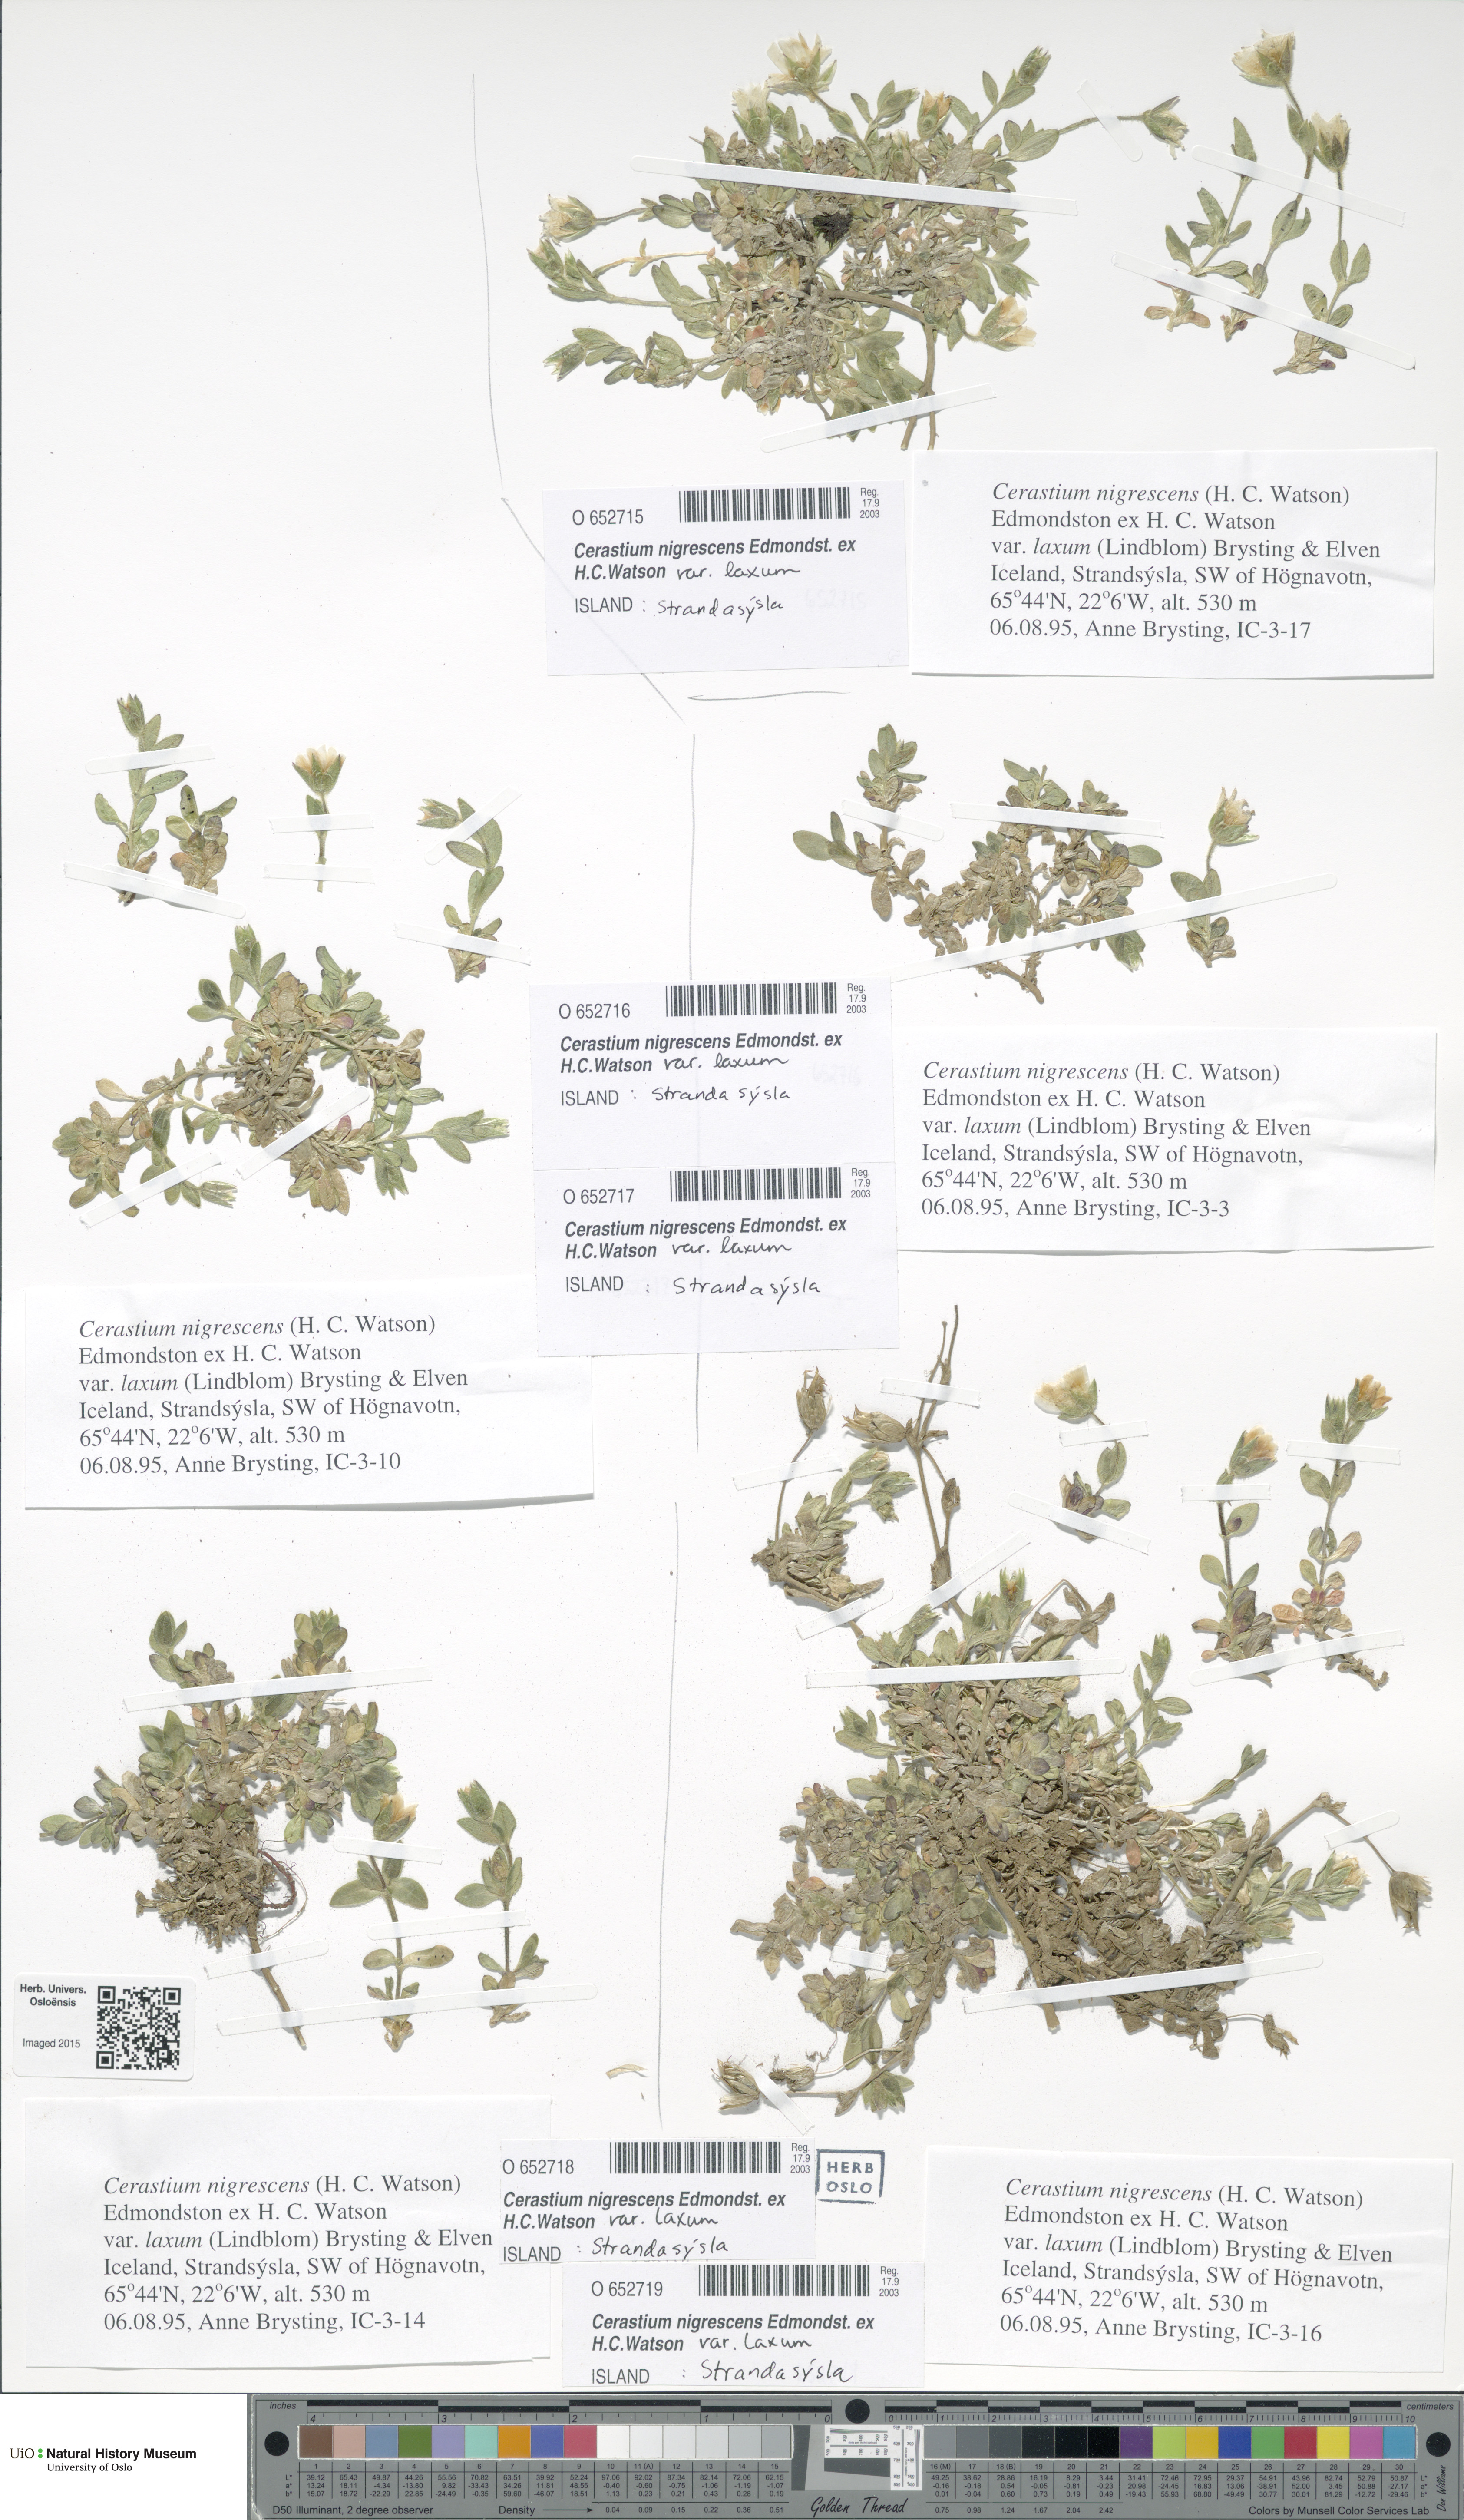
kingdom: Plantae
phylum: Tracheophyta
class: Magnoliopsida
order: Caryophyllales
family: Caryophyllaceae
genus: Cerastium
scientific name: Cerastium nigrescens
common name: Shetland mouse-ear
